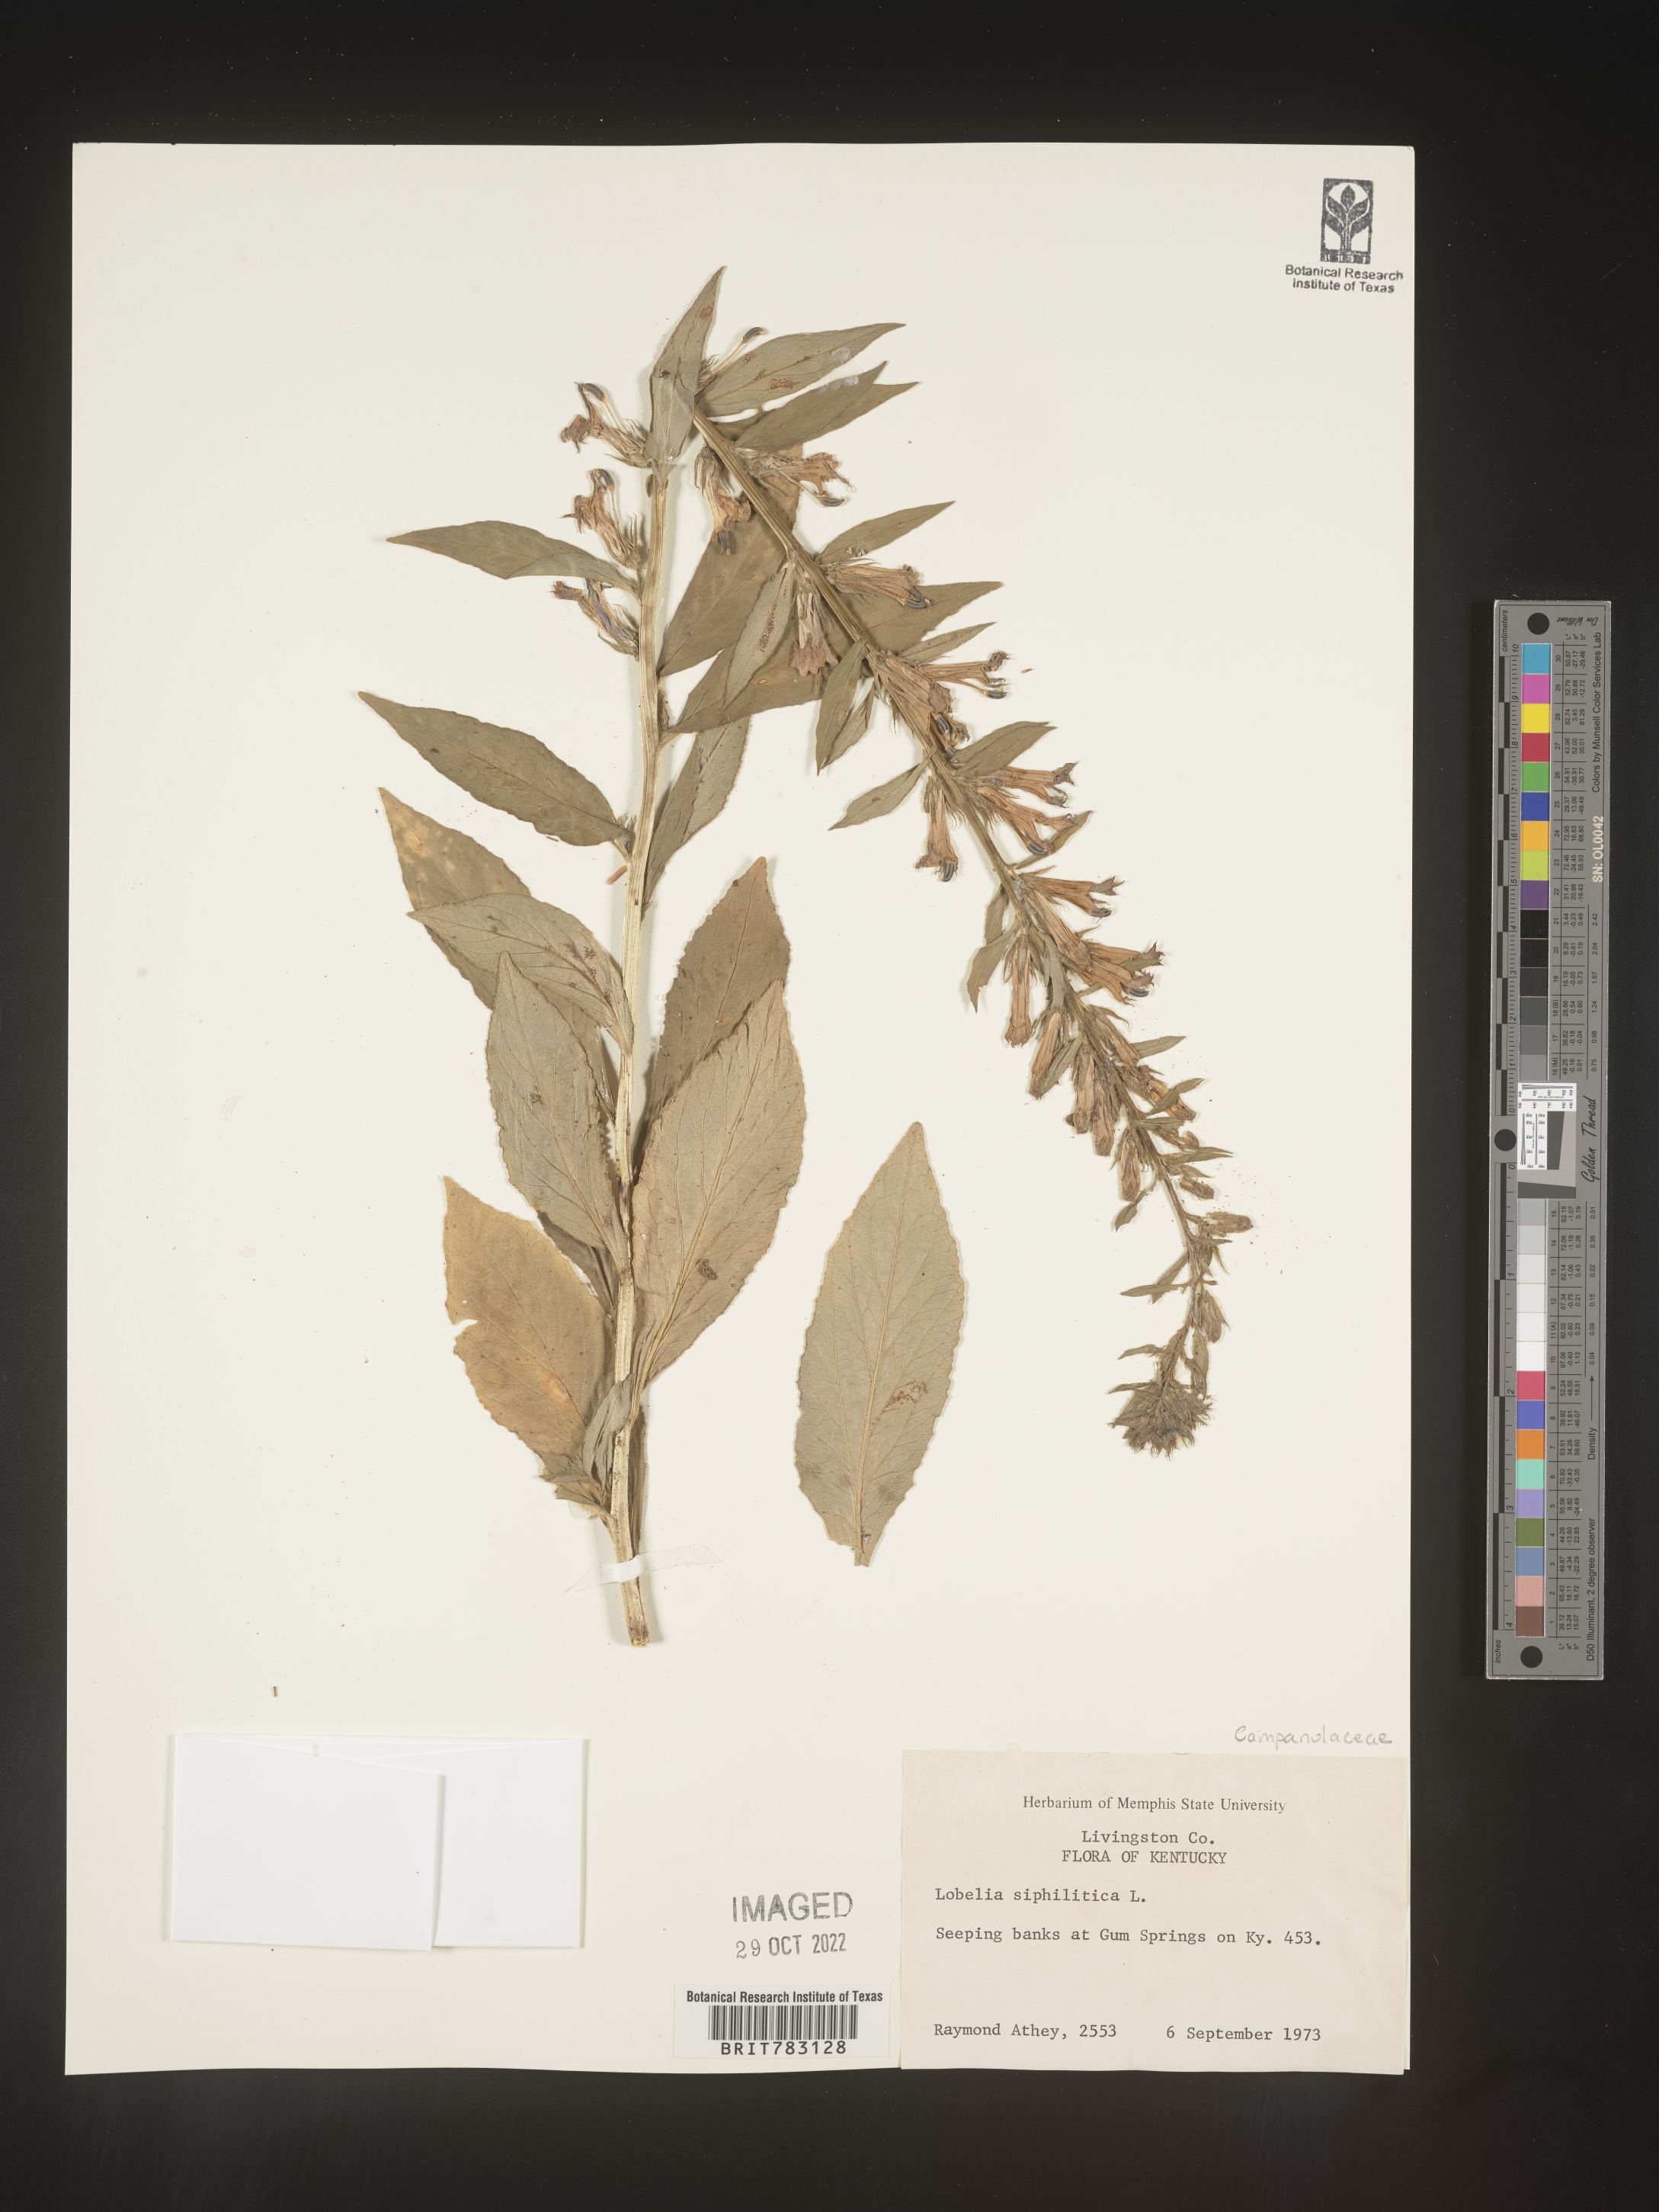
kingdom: Plantae
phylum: Tracheophyta
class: Magnoliopsida
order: Asterales
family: Campanulaceae
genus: Lobelia
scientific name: Lobelia siphilitica
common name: Great lobelia
